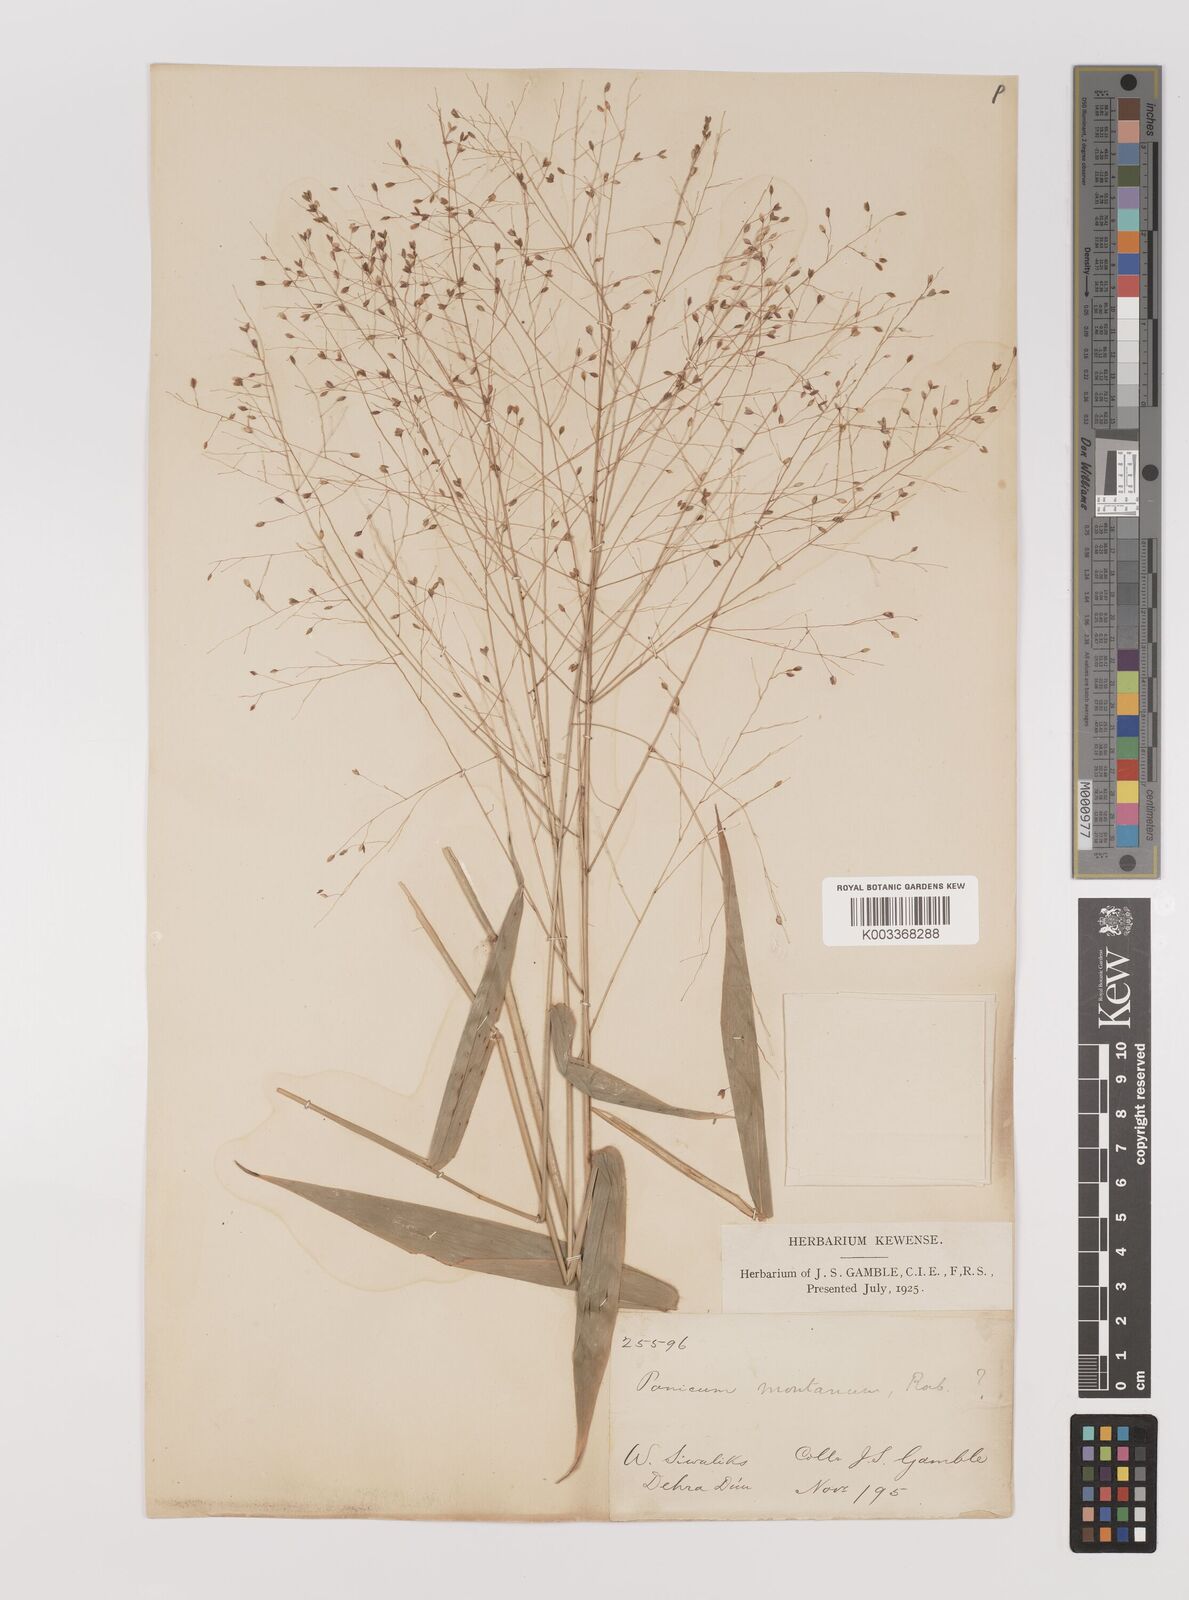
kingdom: Plantae
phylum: Tracheophyta
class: Liliopsida
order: Poales
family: Poaceae
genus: Panicum
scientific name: Panicum notatum
